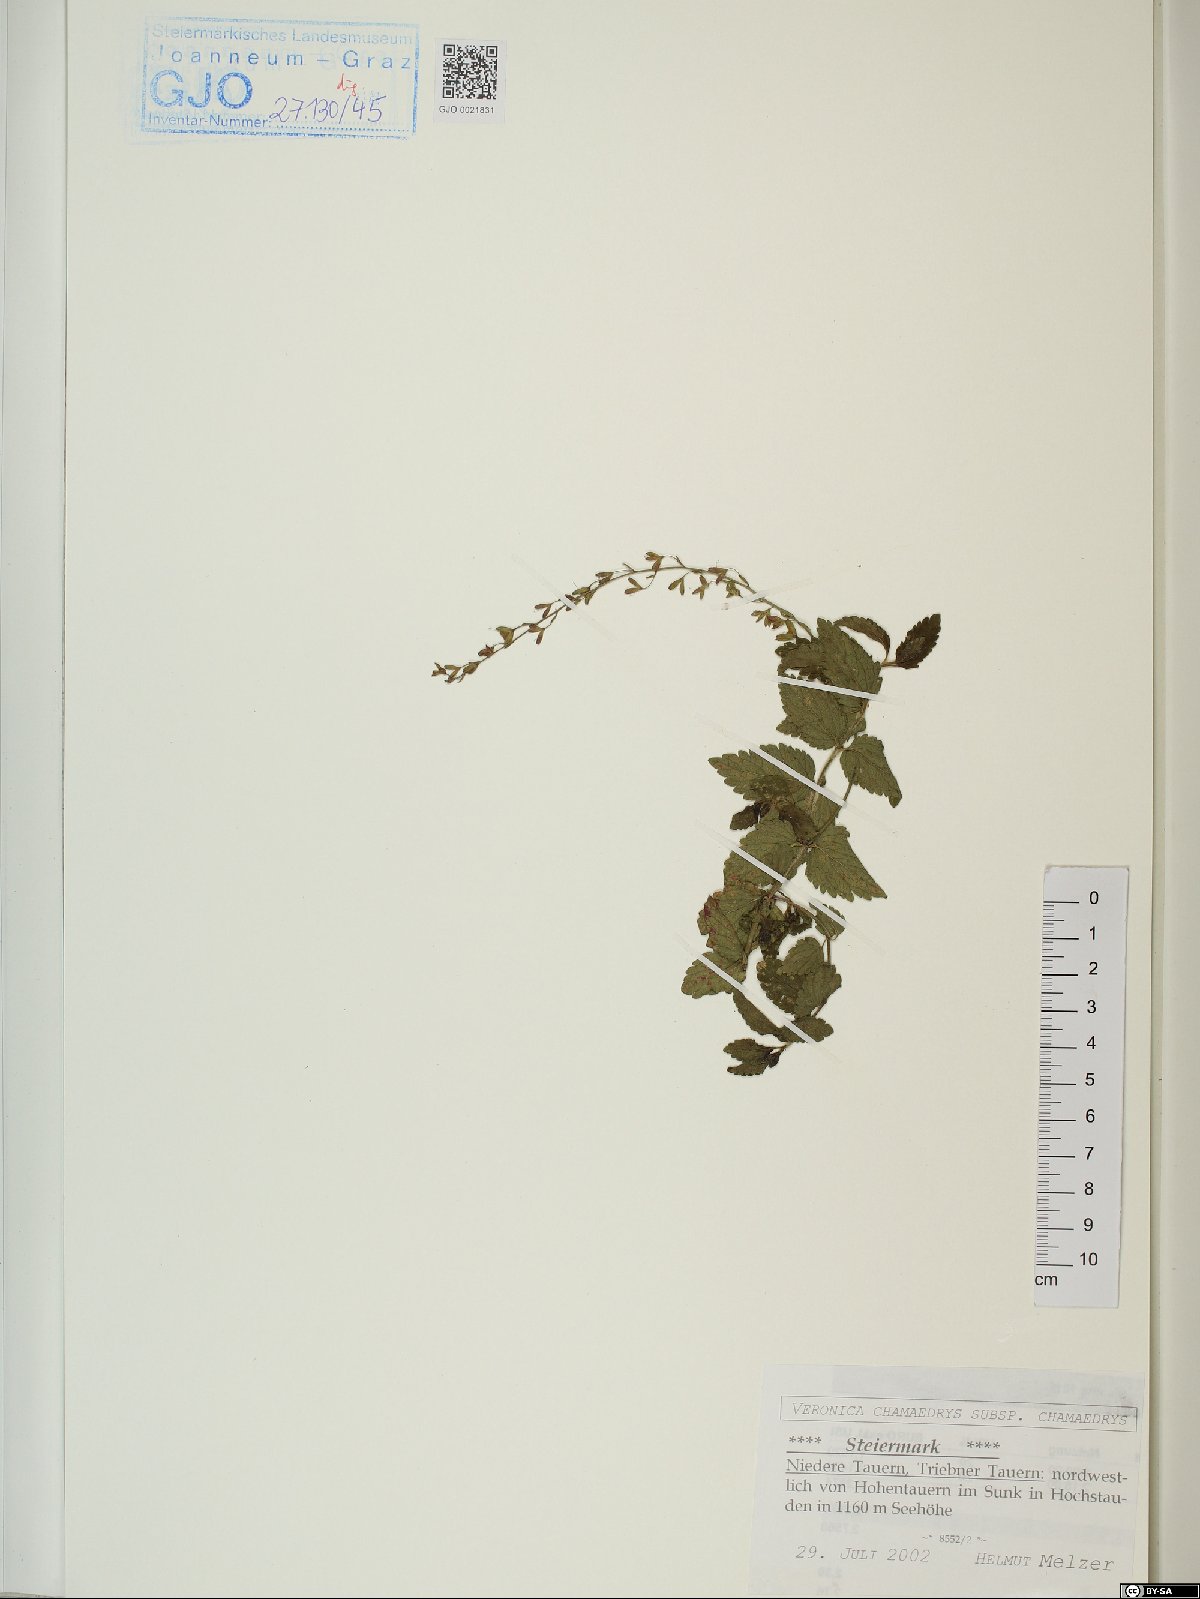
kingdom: Plantae
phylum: Tracheophyta
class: Magnoliopsida
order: Lamiales
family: Plantaginaceae
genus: Veronica
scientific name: Veronica chamaedrys
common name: Germander speedwell
